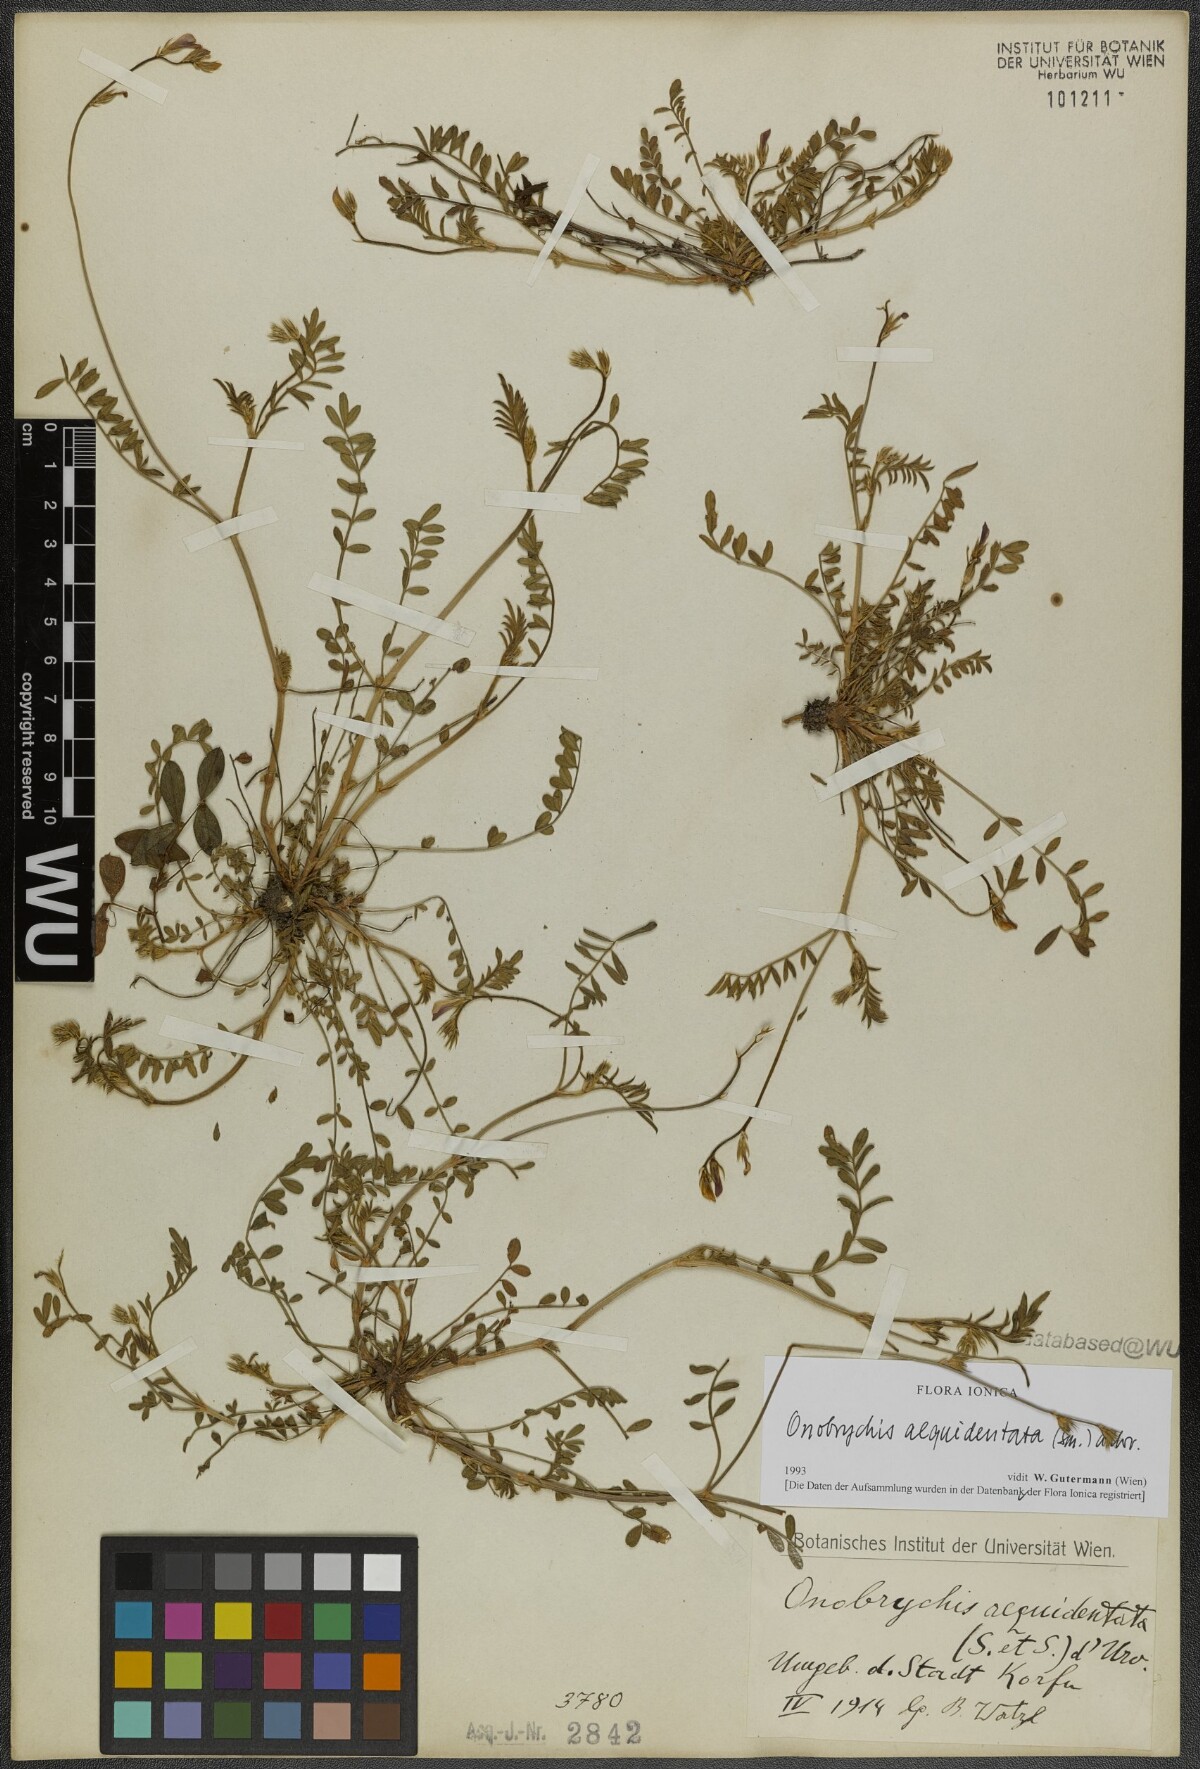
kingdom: Plantae
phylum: Tracheophyta
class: Magnoliopsida
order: Fabales
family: Fabaceae
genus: Onobrychis
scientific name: Onobrychis aequidentata
